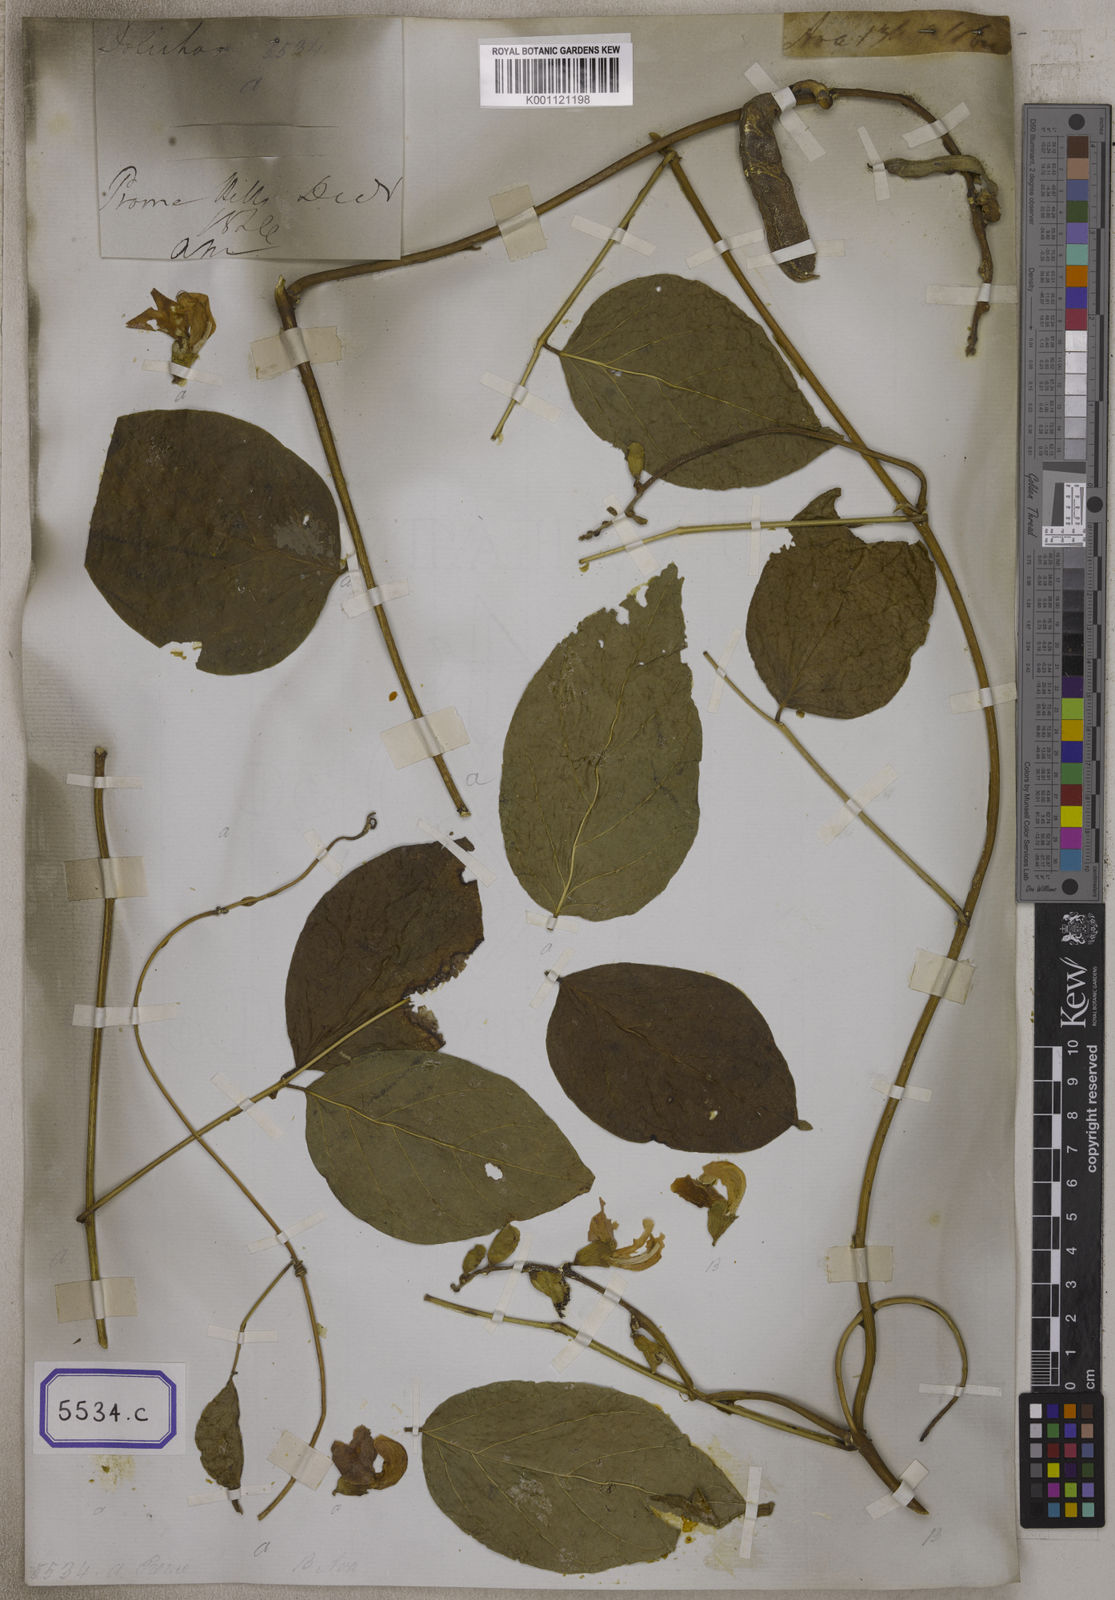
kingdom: Plantae
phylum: Tracheophyta
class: Magnoliopsida
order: Fabales
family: Fabaceae
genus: Canavalia
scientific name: Canavalia
